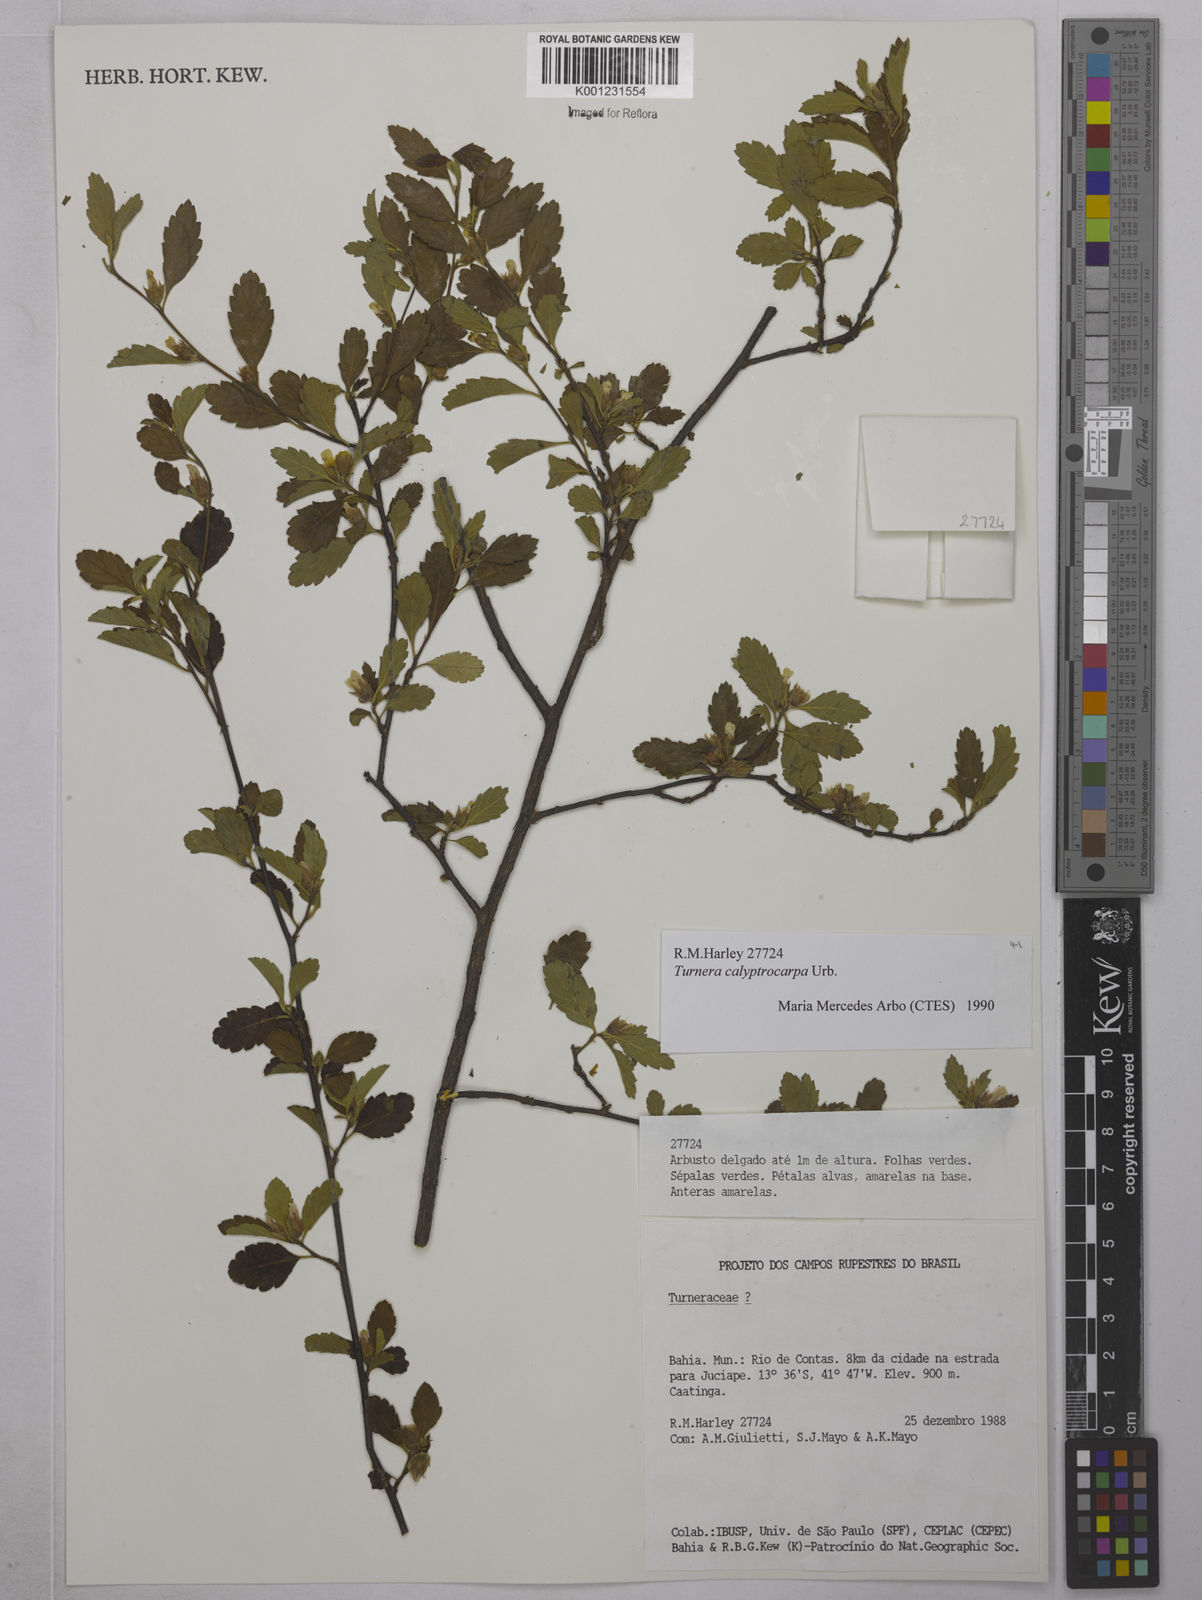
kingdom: Plantae
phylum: Tracheophyta
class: Magnoliopsida
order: Malpighiales
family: Turneraceae
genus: Oxossia
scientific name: Oxossia calyptrocarpa
